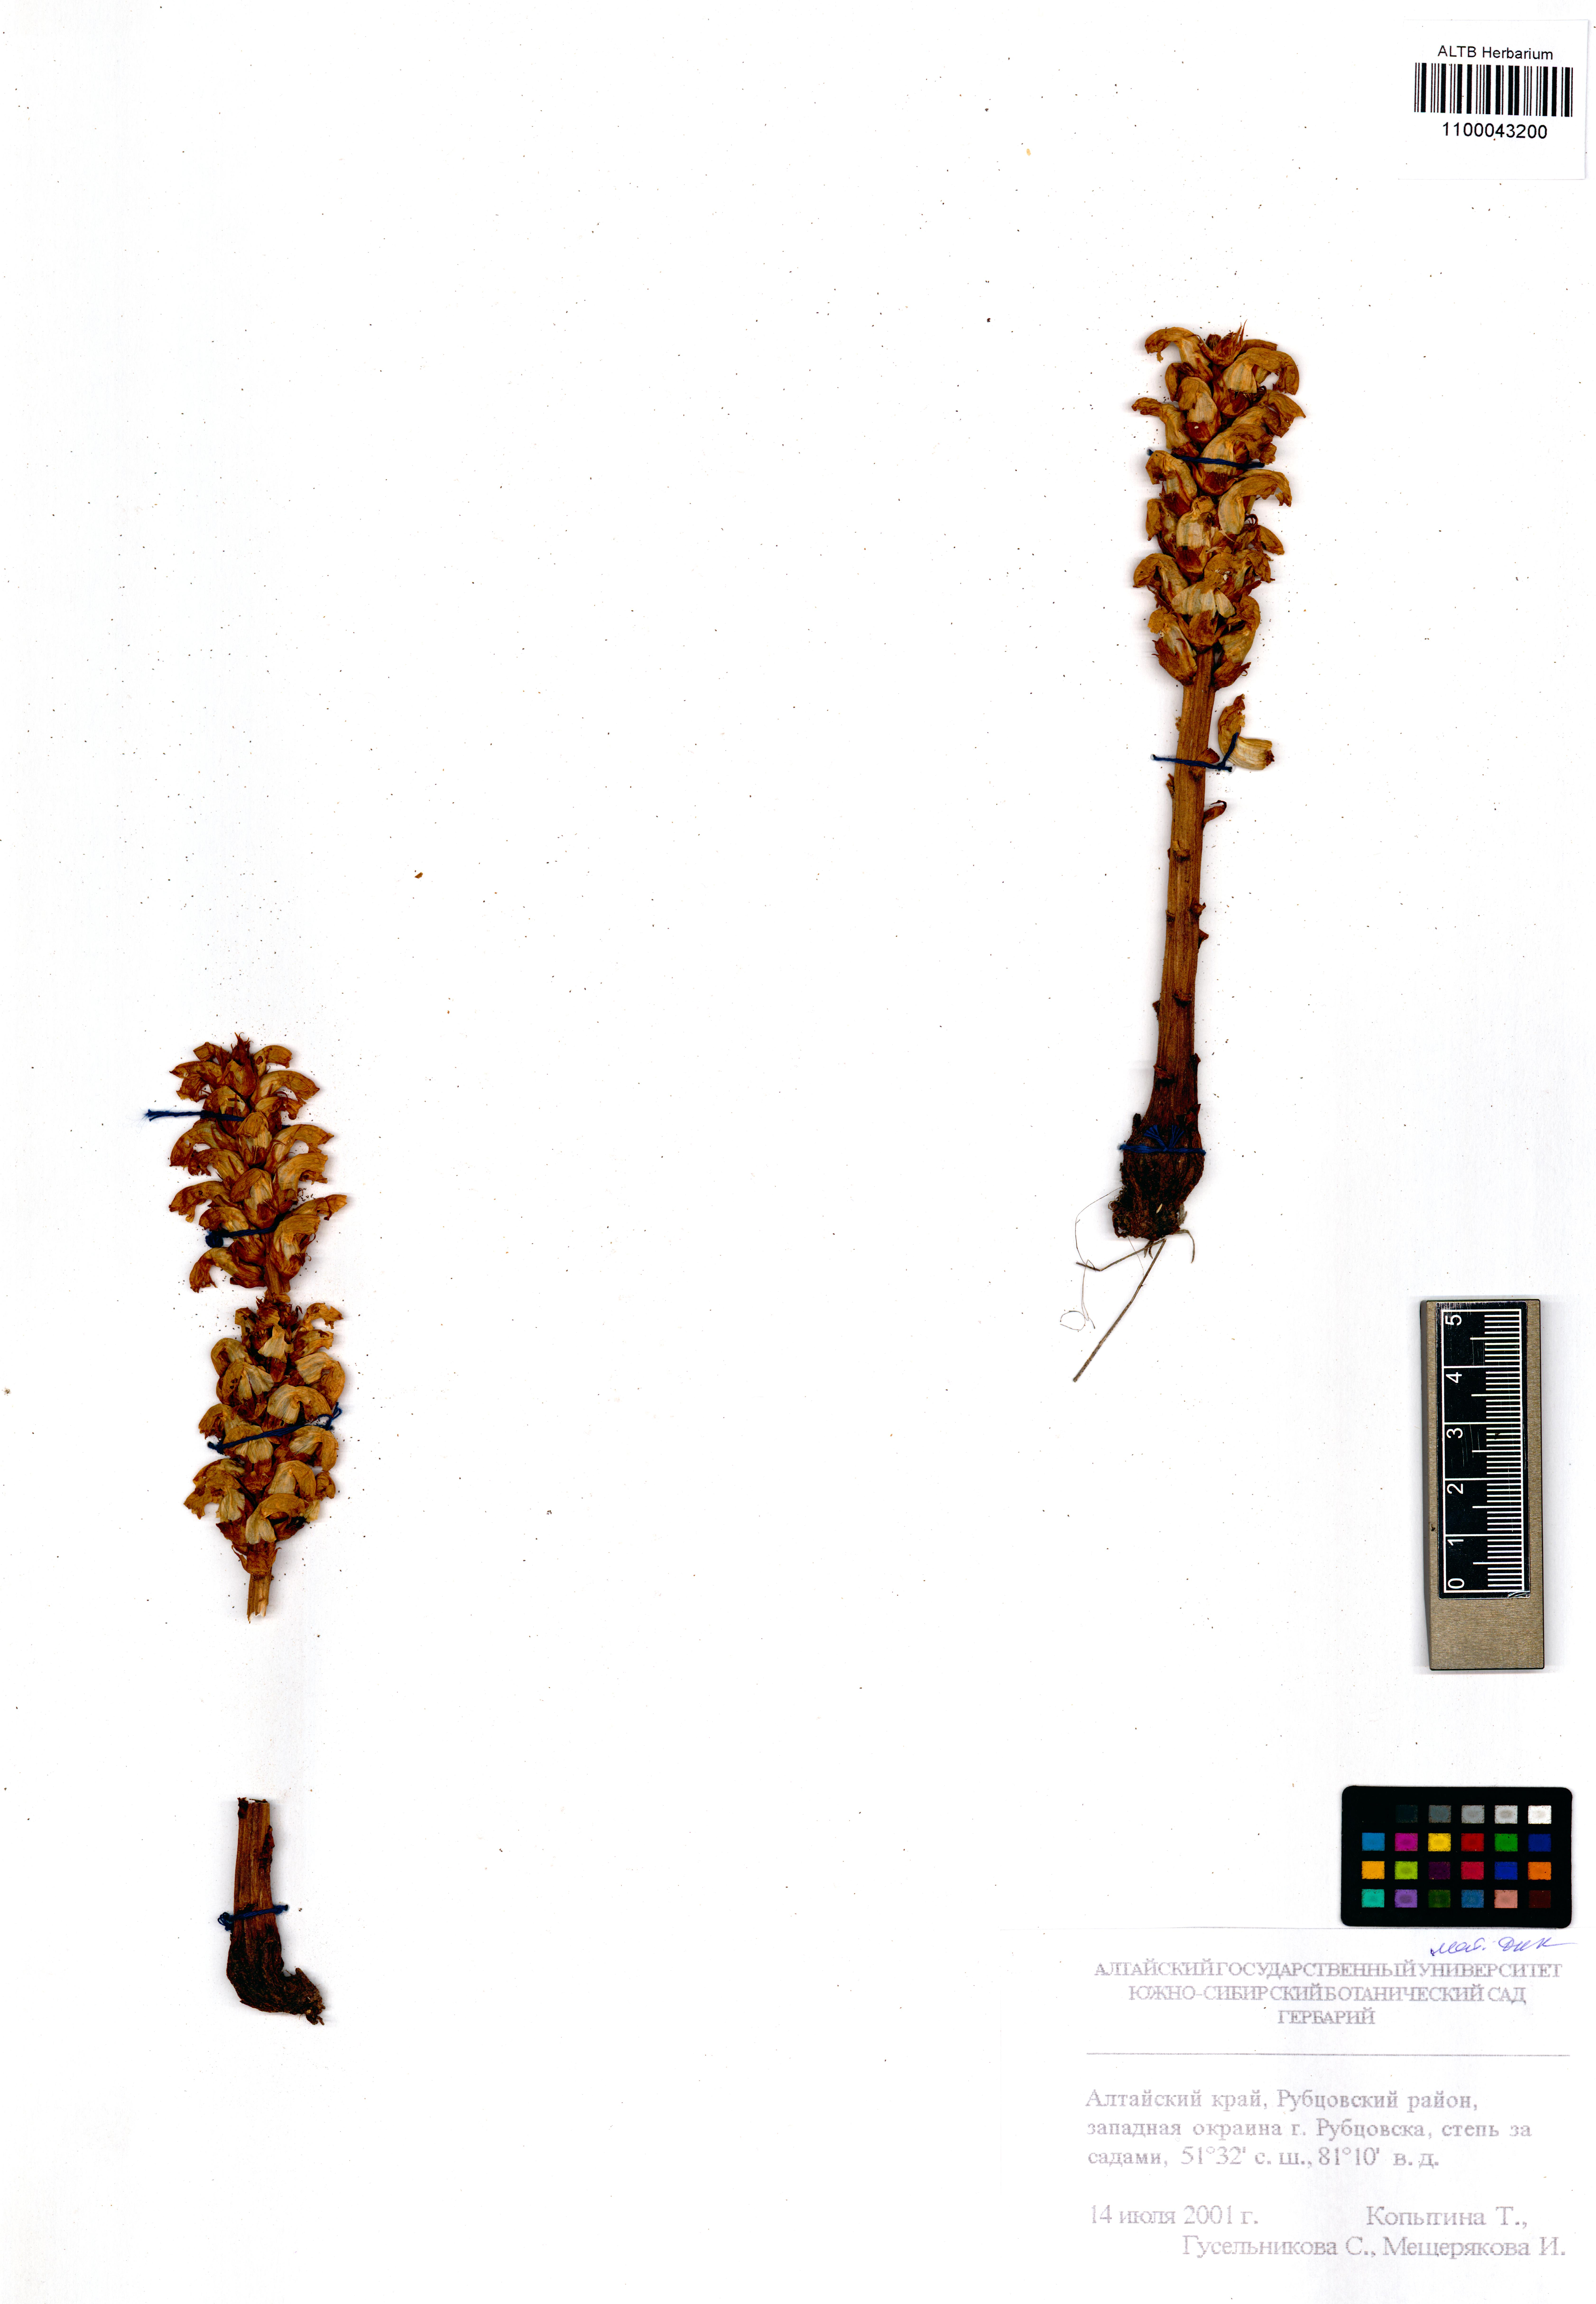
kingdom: Plantae
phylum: Tracheophyta
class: Magnoliopsida
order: Lamiales
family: Orobanchaceae
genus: Orobanche
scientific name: Orobanche cernua
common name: Australian broomrape
